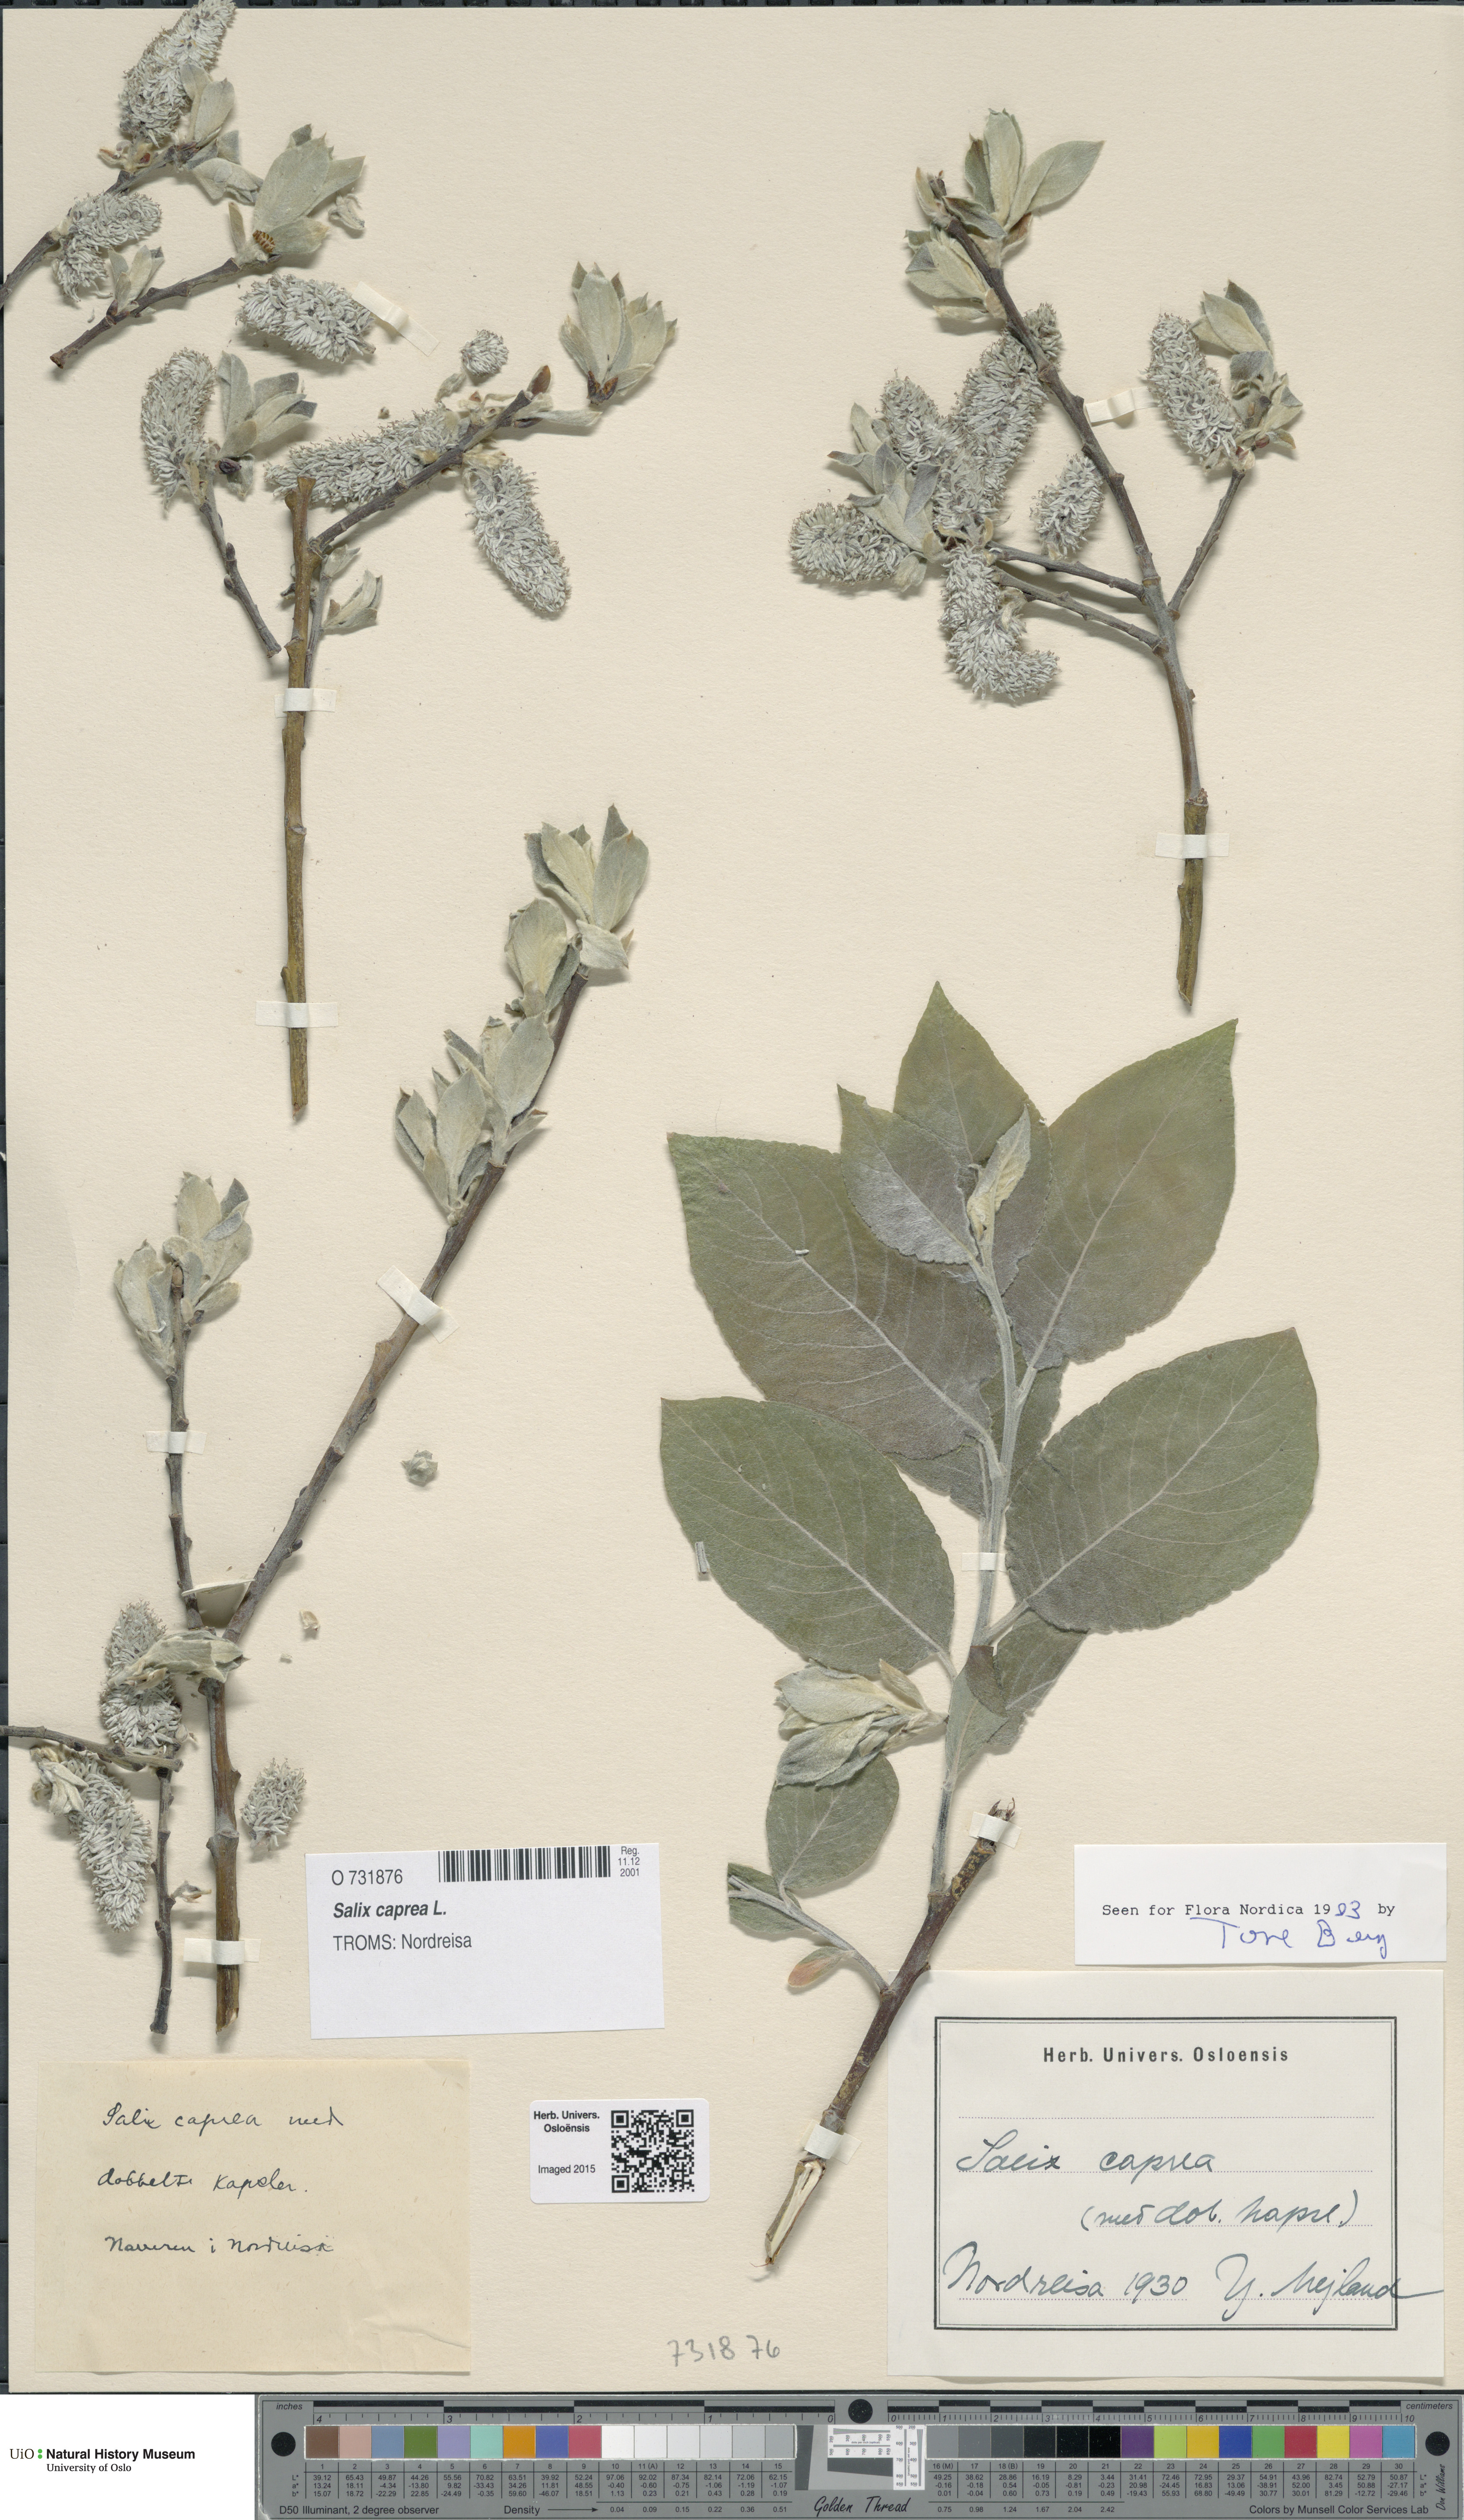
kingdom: Plantae
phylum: Tracheophyta
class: Magnoliopsida
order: Malpighiales
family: Salicaceae
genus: Salix
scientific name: Salix caprea
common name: Goat willow
